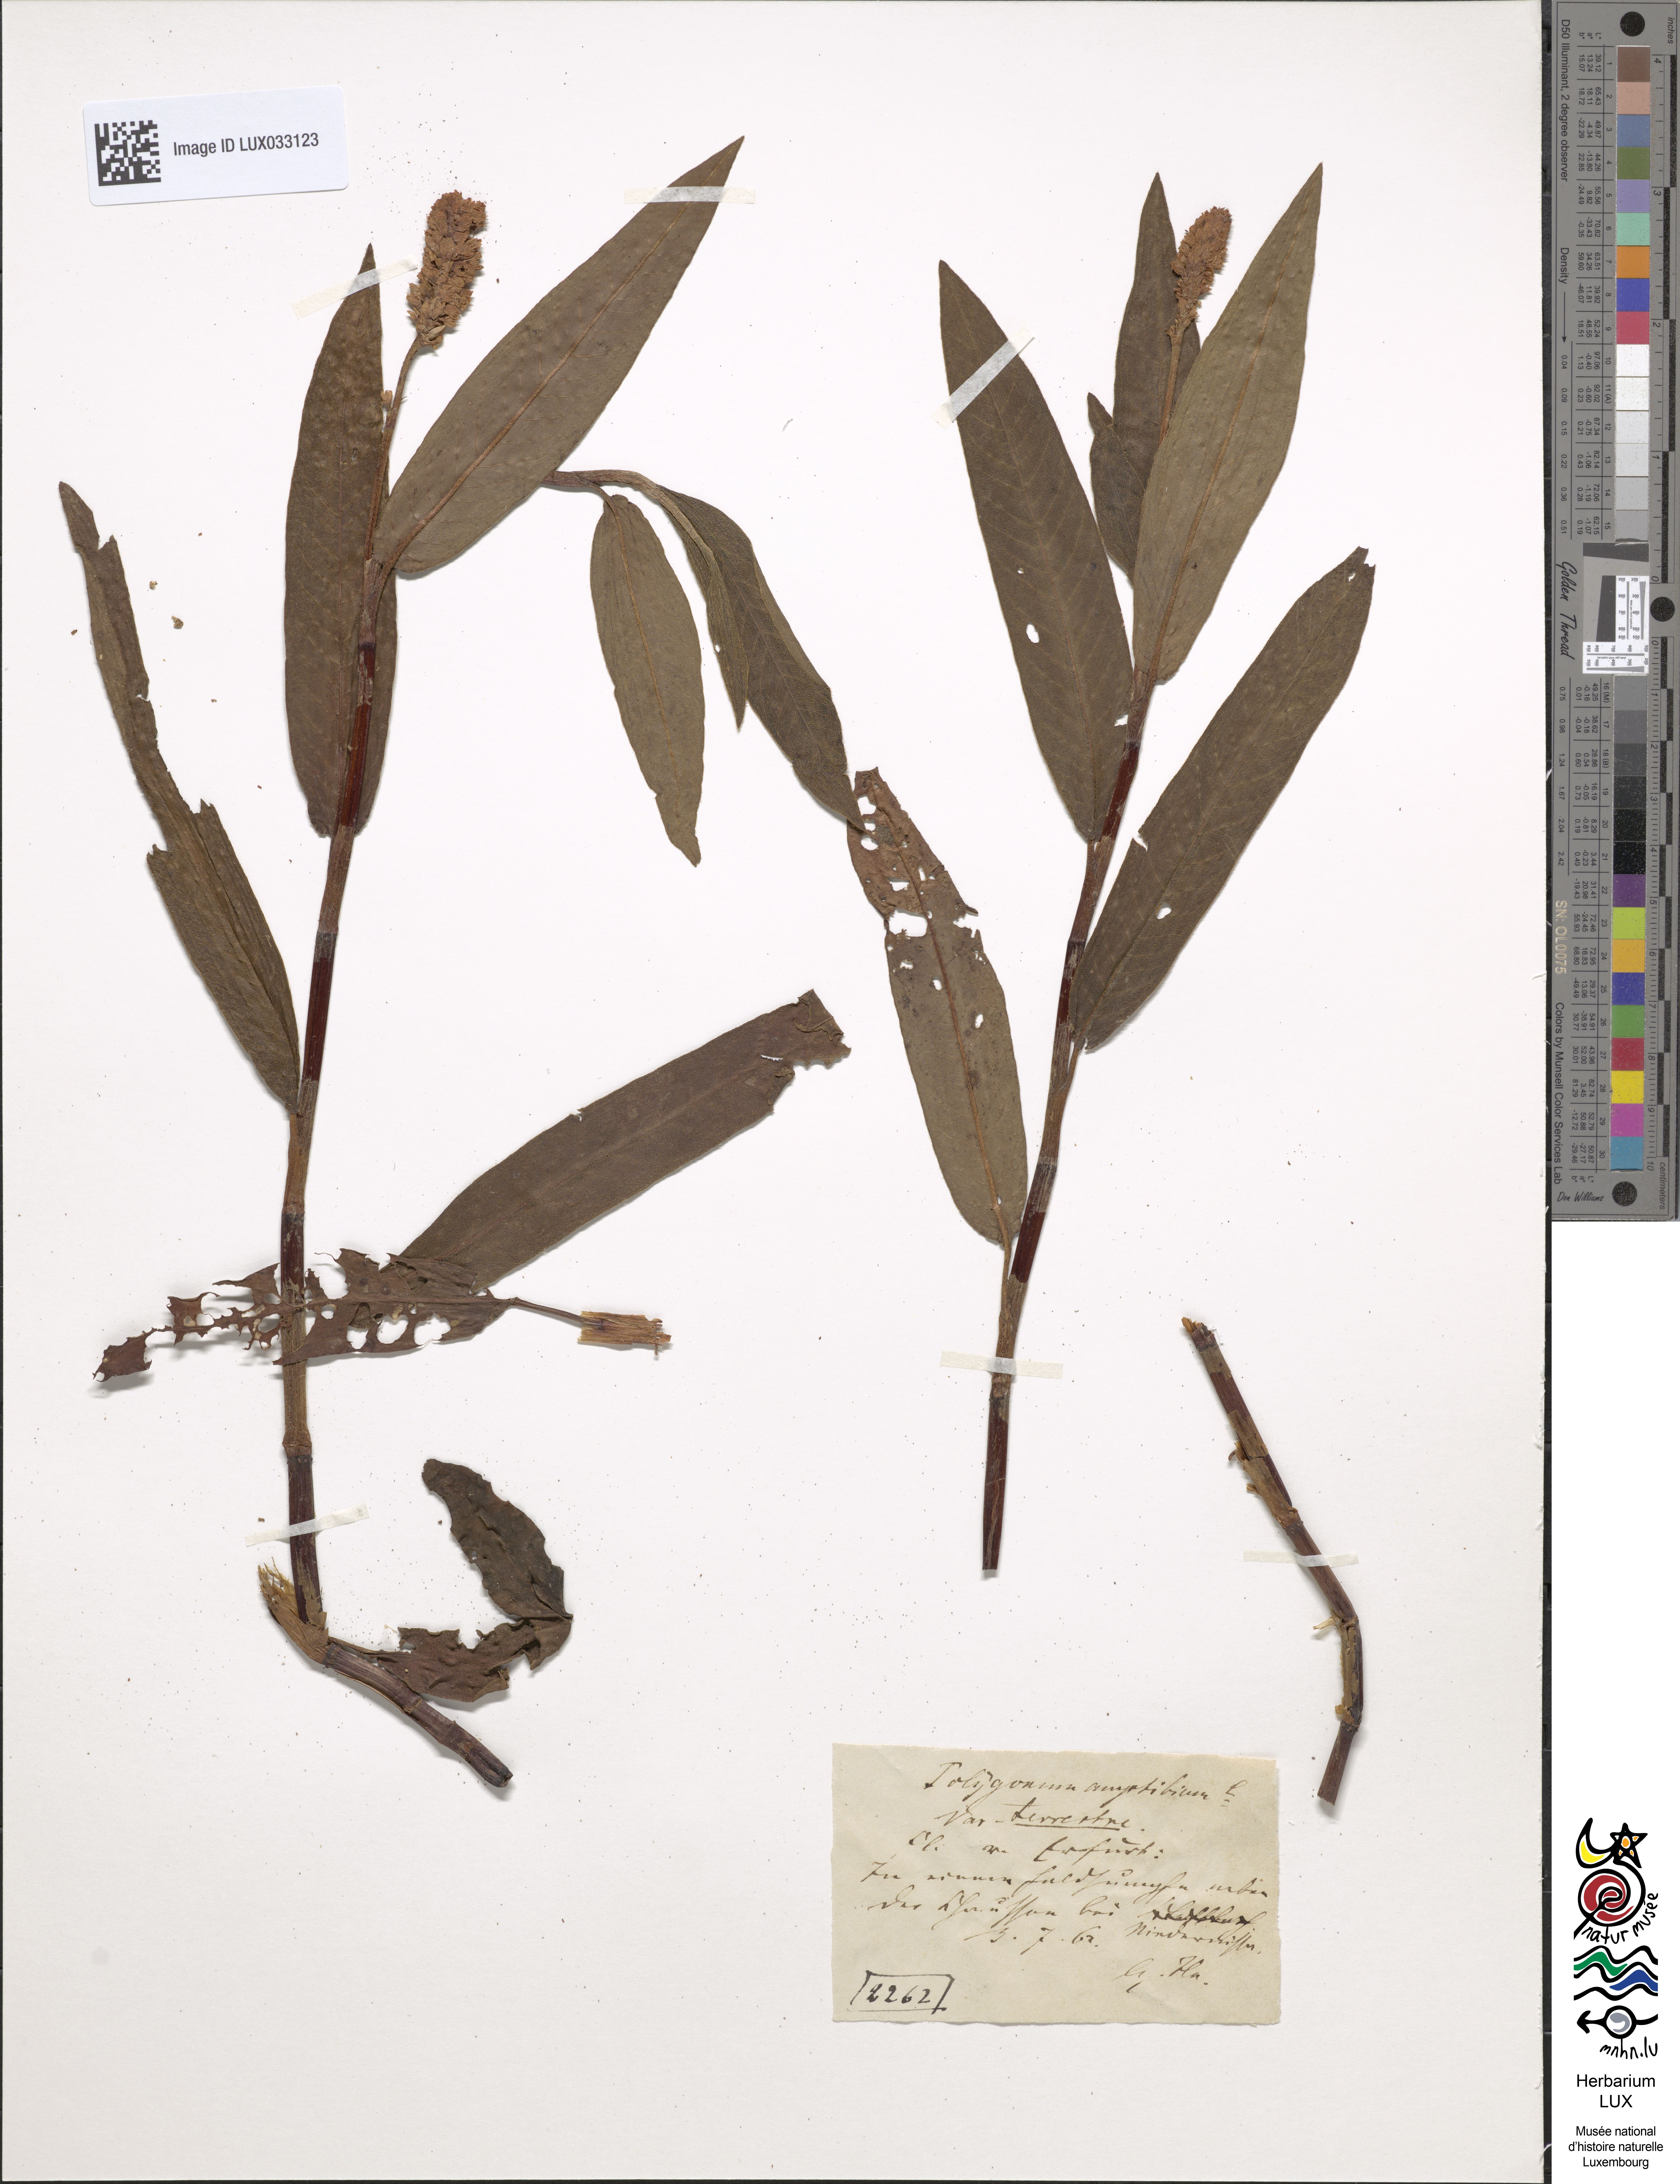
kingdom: Plantae
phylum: Tracheophyta
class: Magnoliopsida
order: Caryophyllales
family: Polygonaceae
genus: Persicaria
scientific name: Persicaria amphibia
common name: Amphibious bistort
